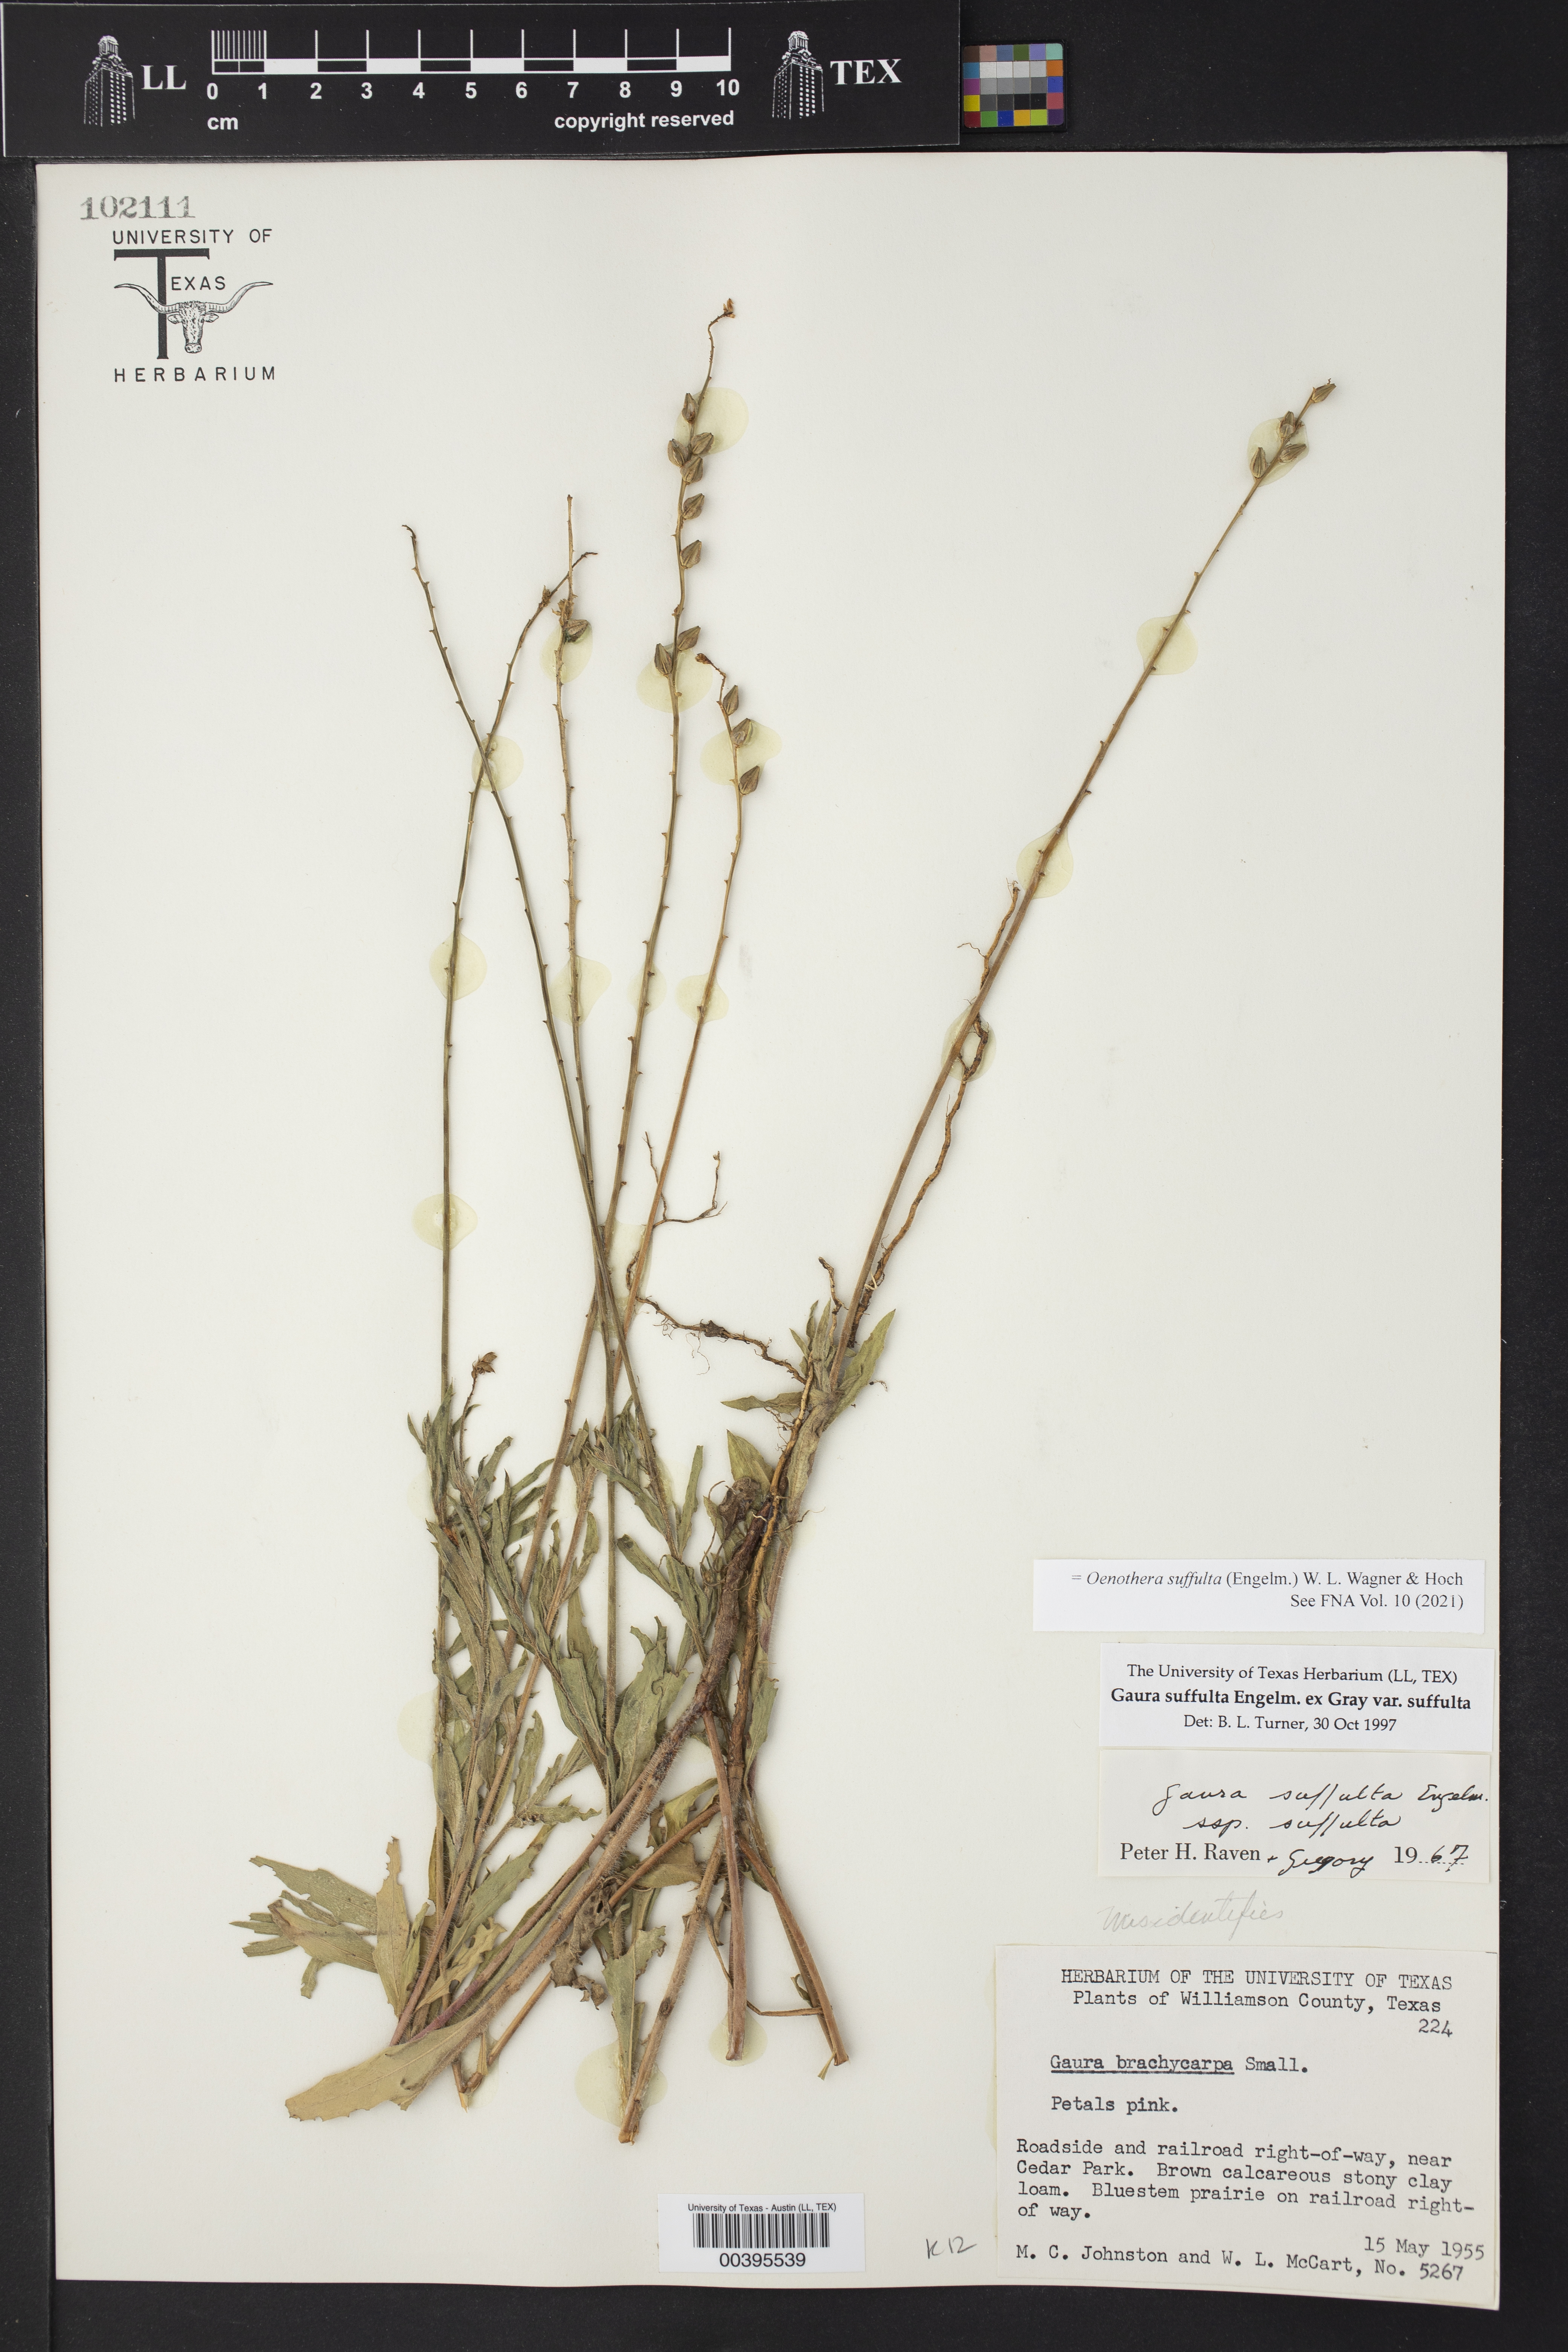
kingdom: Plantae
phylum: Tracheophyta
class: Magnoliopsida
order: Myrtales
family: Onagraceae
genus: Oenothera
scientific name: Oenothera suffulta
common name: Kisses
